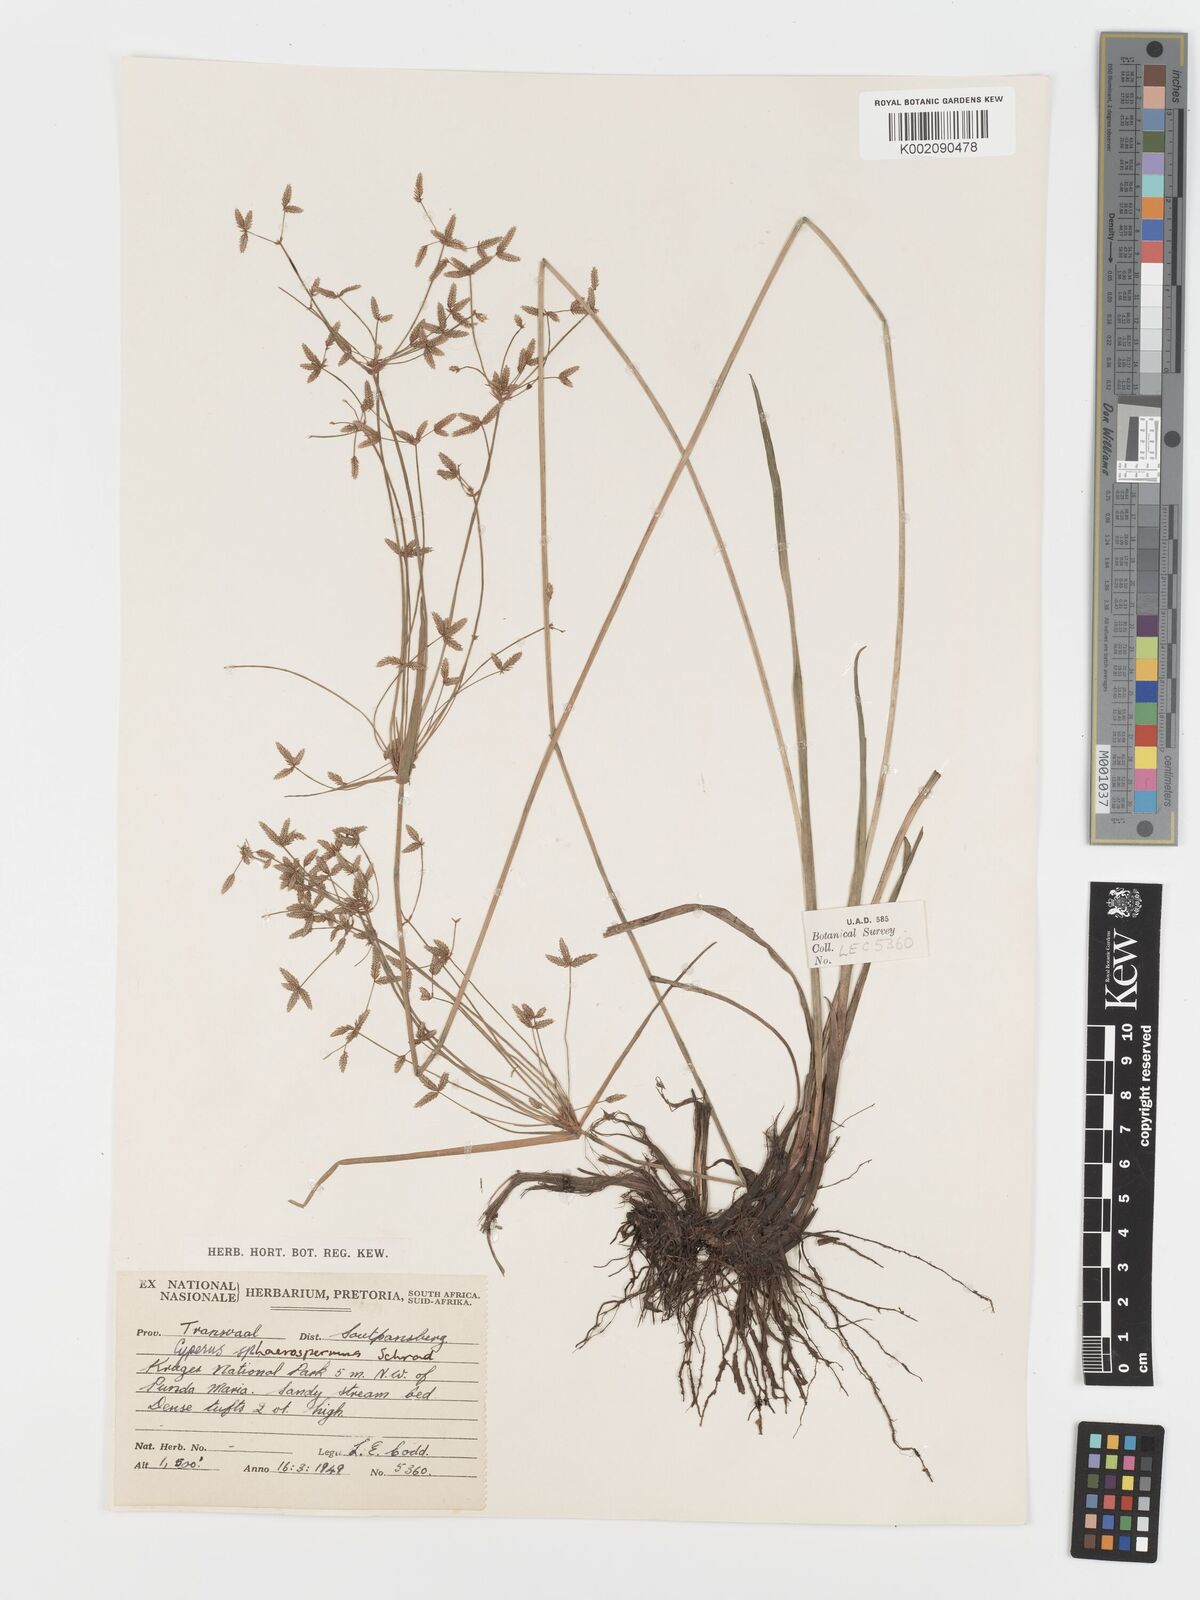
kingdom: Plantae
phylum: Tracheophyta
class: Liliopsida
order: Poales
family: Cyperaceae
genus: Cyperus
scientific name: Cyperus sphaerospermus
